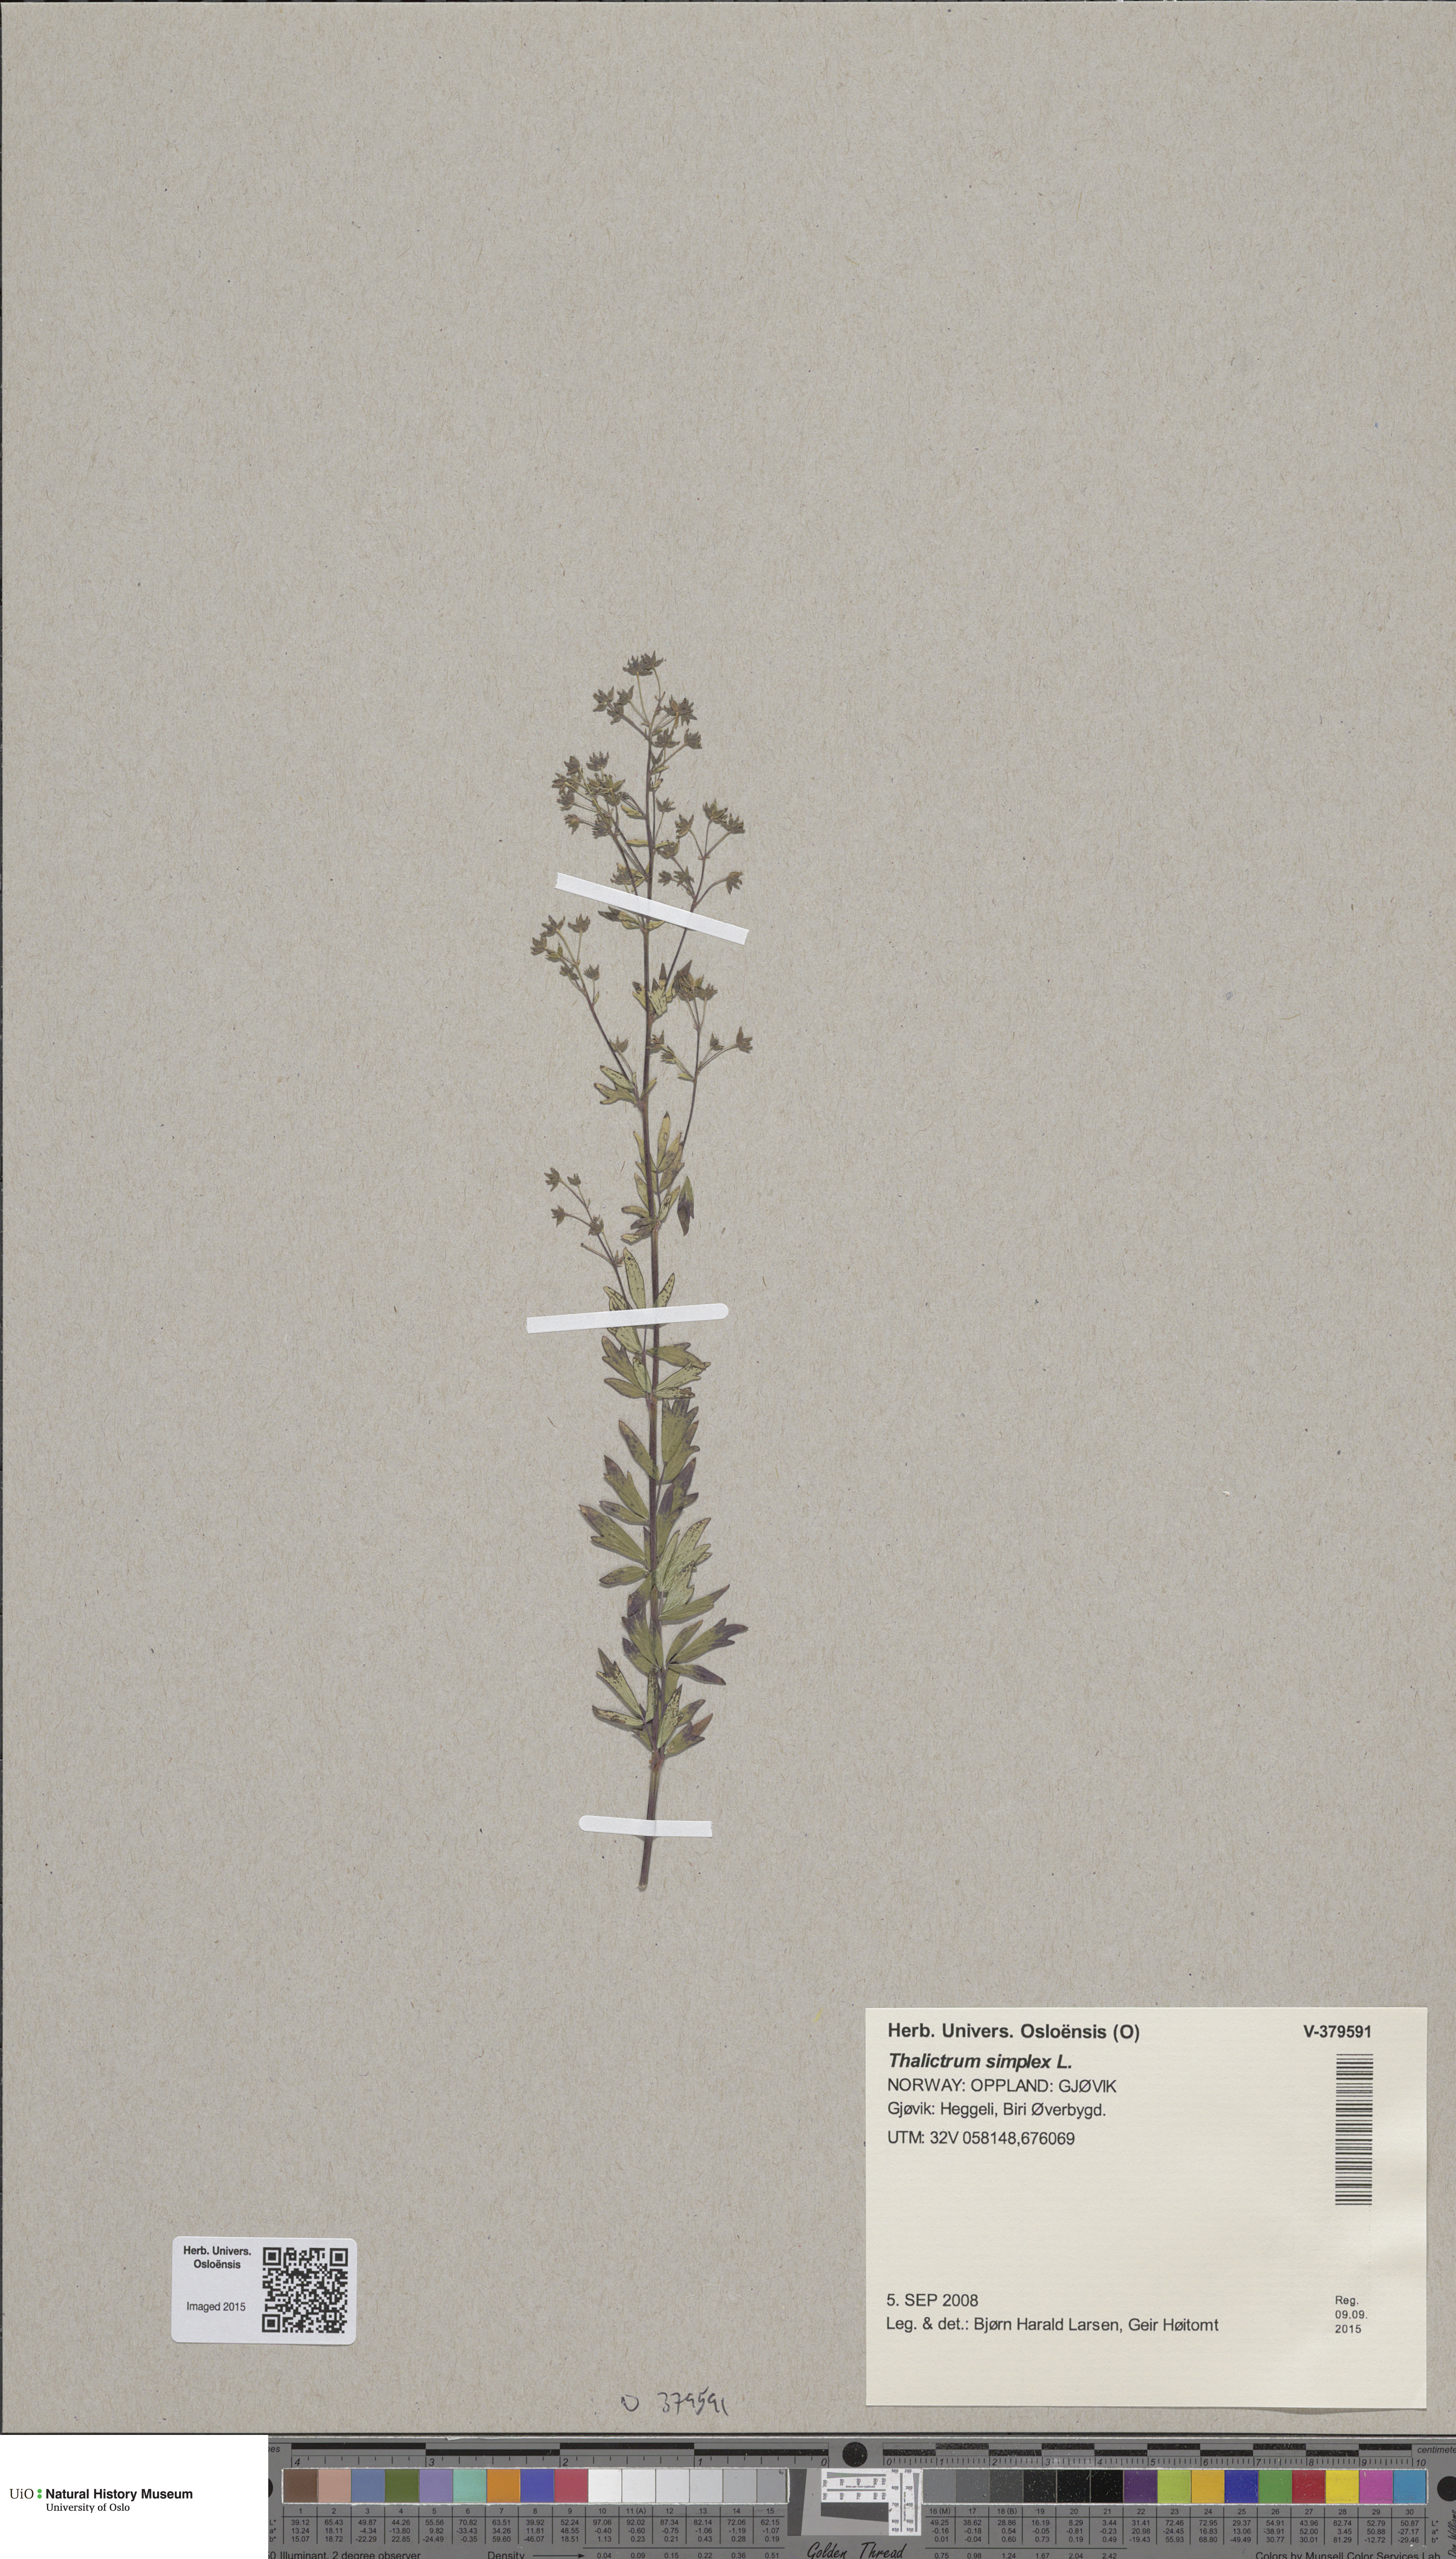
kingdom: Plantae
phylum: Tracheophyta
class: Magnoliopsida
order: Ranunculales
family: Ranunculaceae
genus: Thalictrum
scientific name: Thalictrum simplex
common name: Small meadow-rue
